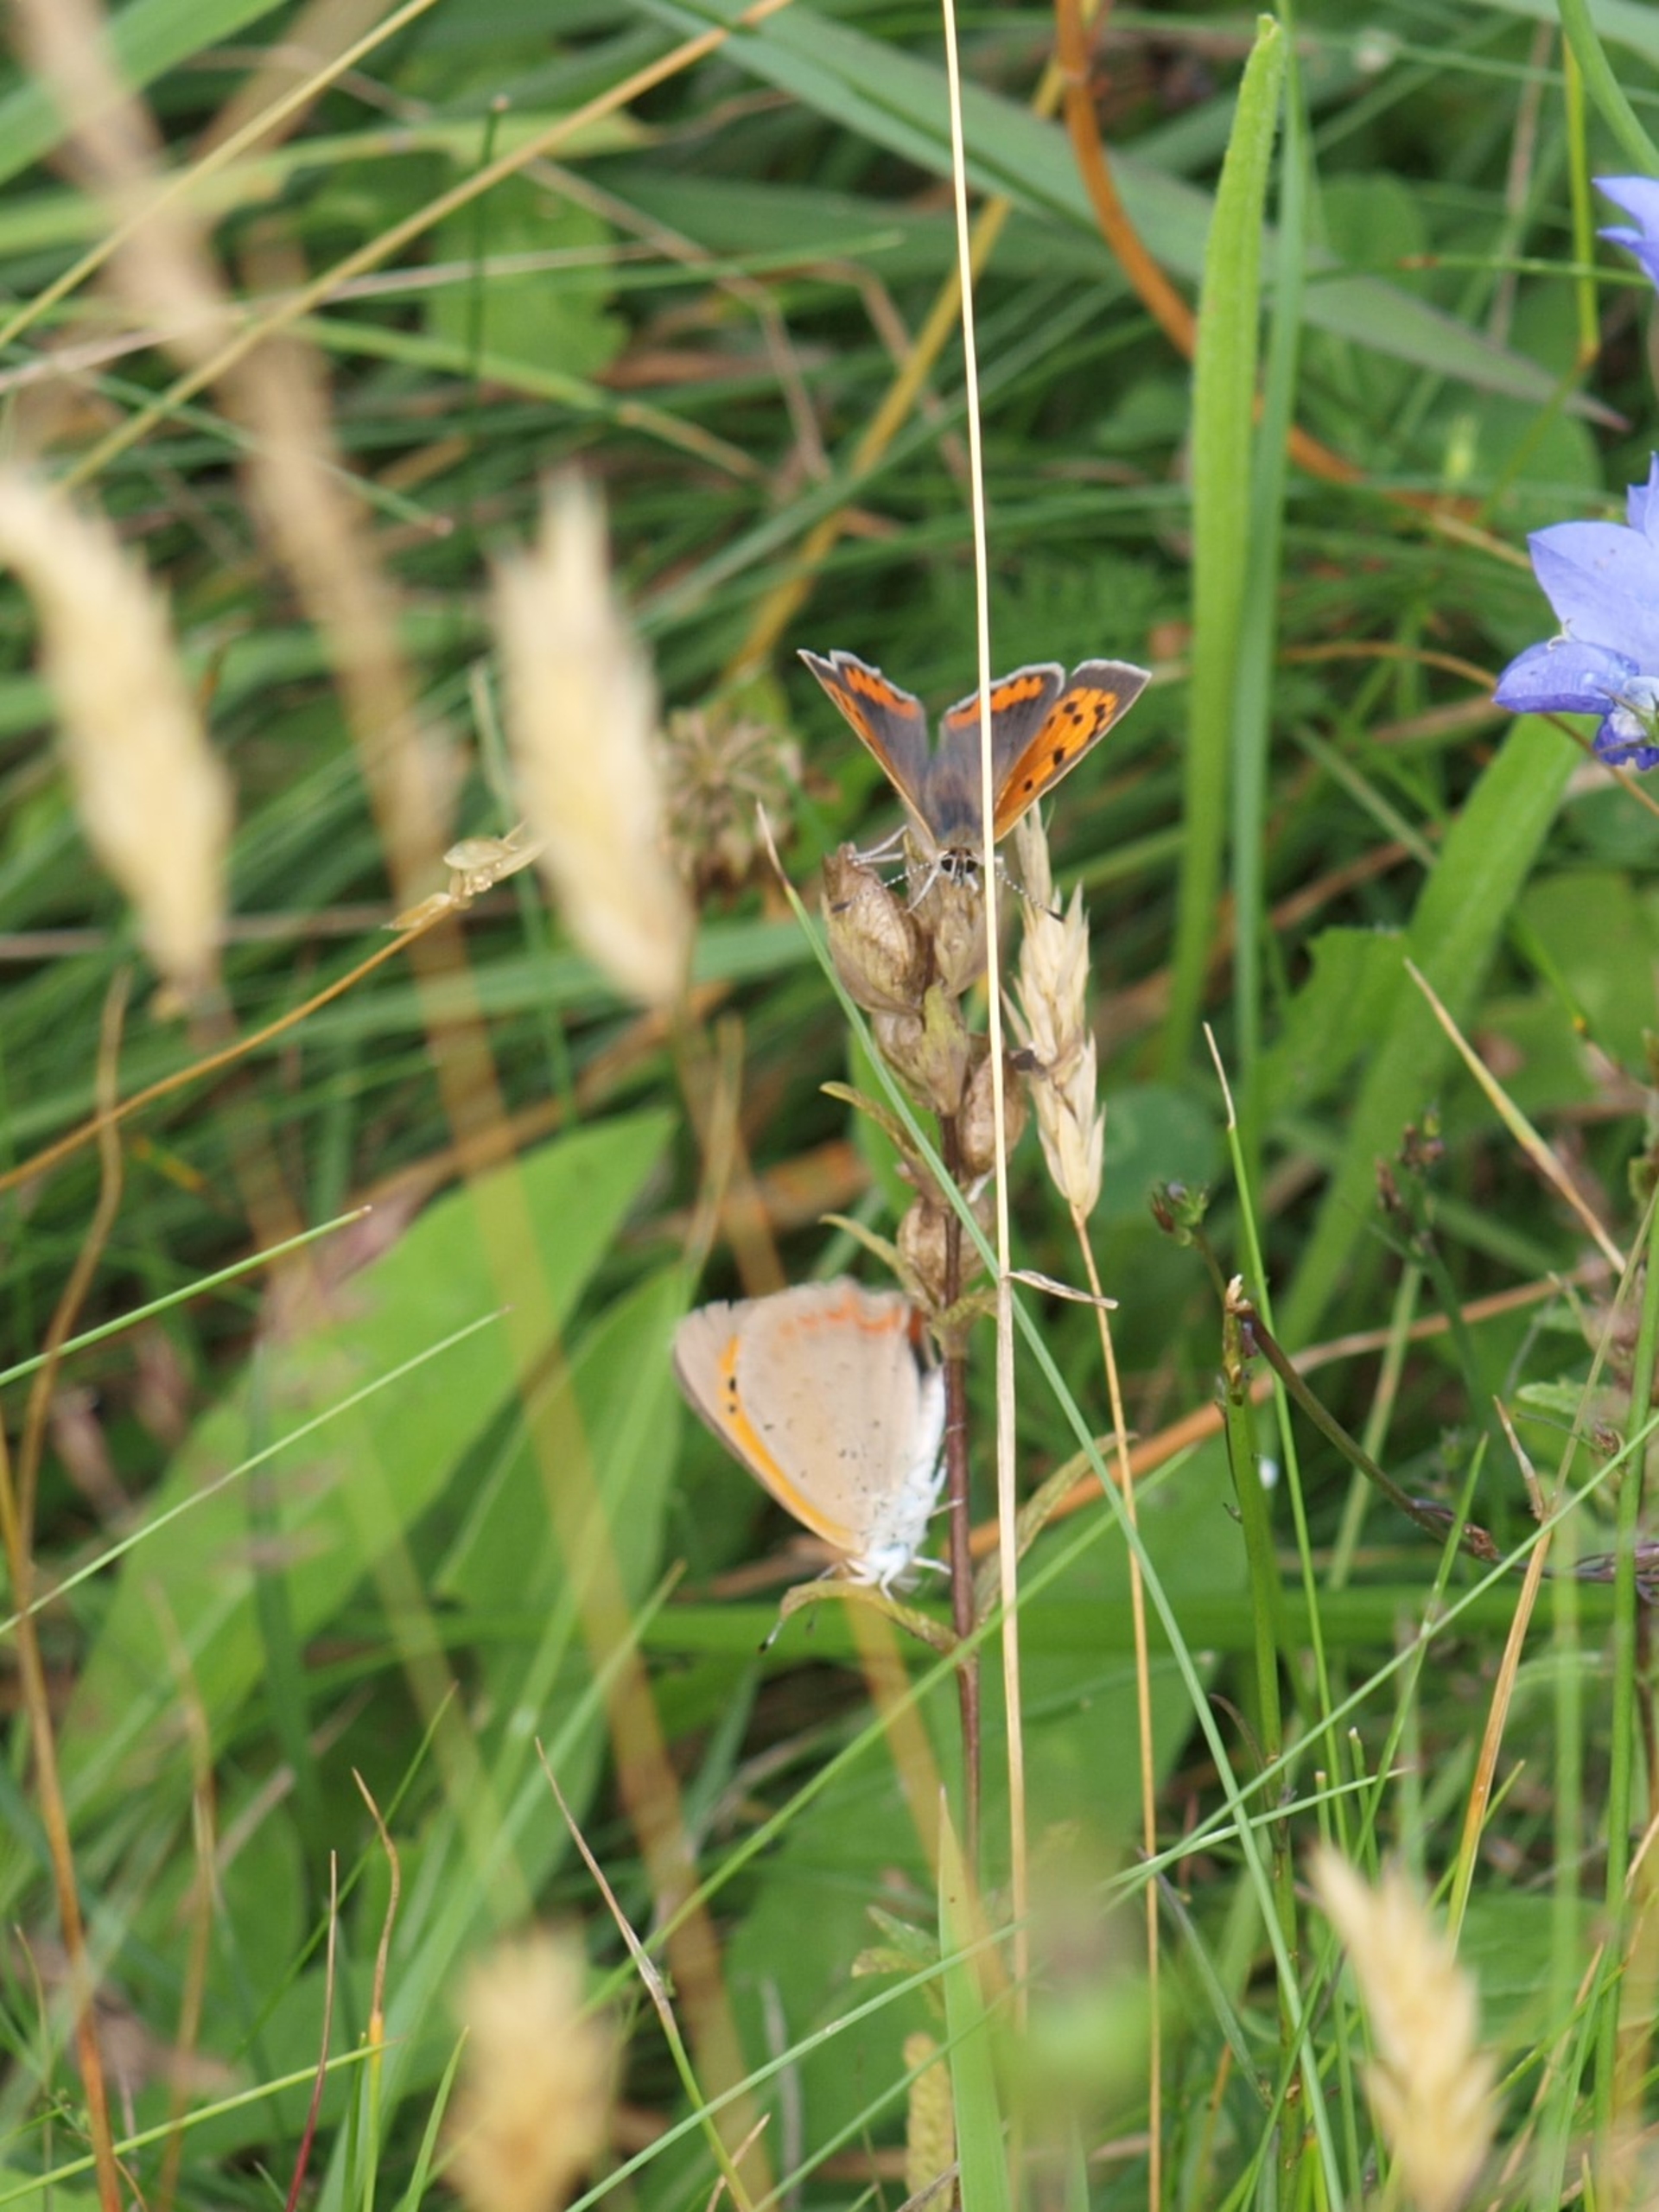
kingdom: Animalia
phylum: Arthropoda
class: Insecta
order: Lepidoptera
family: Lycaenidae
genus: Lycaena
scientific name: Lycaena phlaeas
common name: Lille ildfugl
